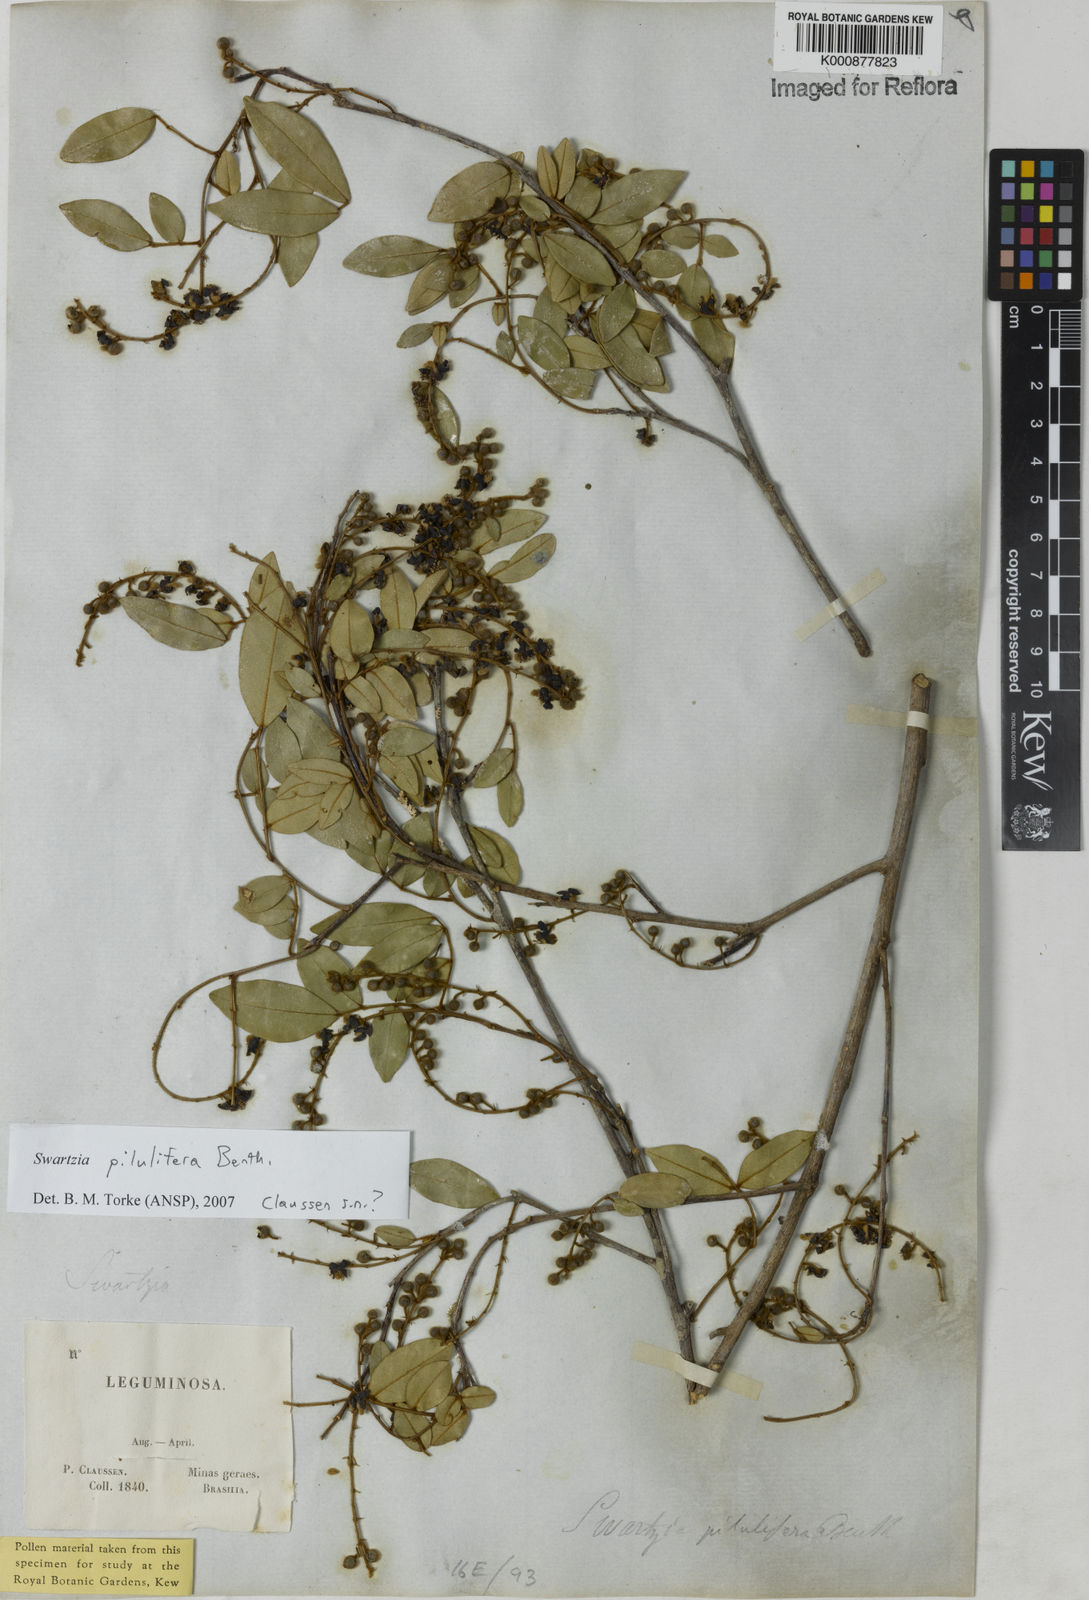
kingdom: Plantae
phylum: Tracheophyta
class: Magnoliopsida
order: Fabales
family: Fabaceae
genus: Swartzia
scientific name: Swartzia pilulifera
